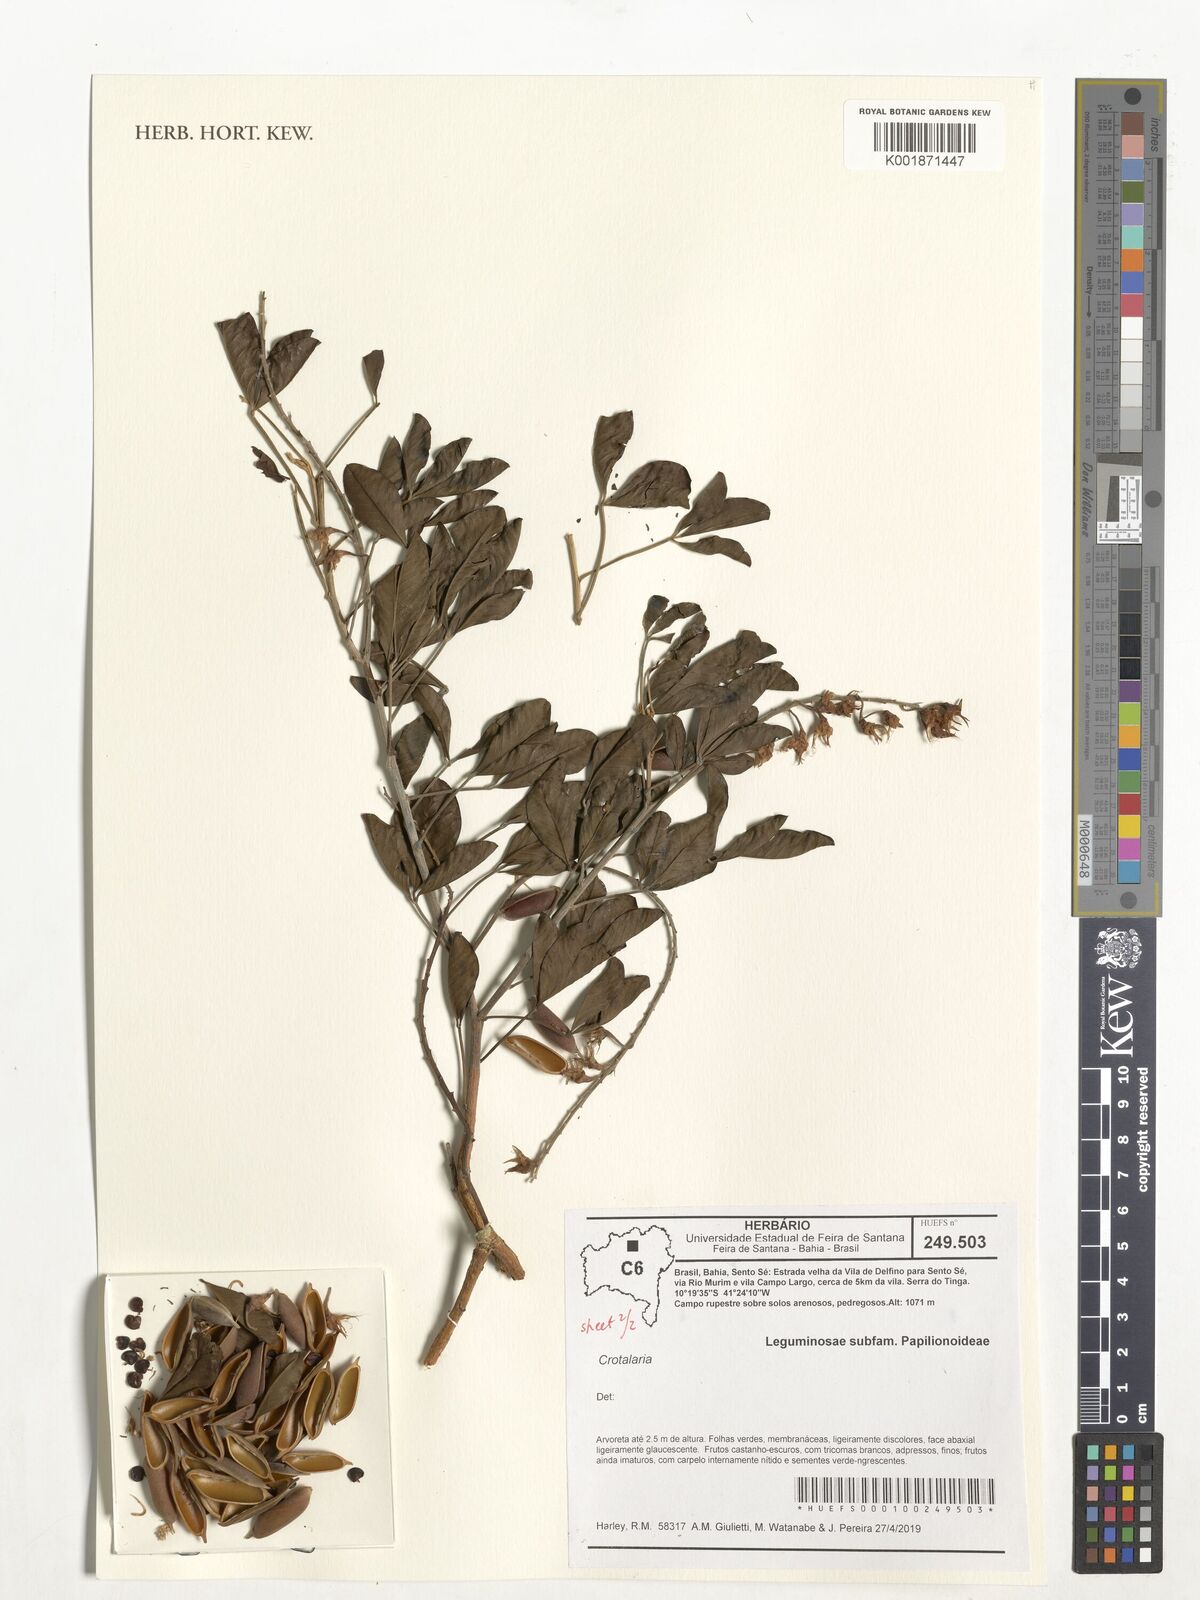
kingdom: Plantae
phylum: Tracheophyta
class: Magnoliopsida
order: Fabales
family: Fabaceae
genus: Crotalaria
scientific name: Crotalaria
